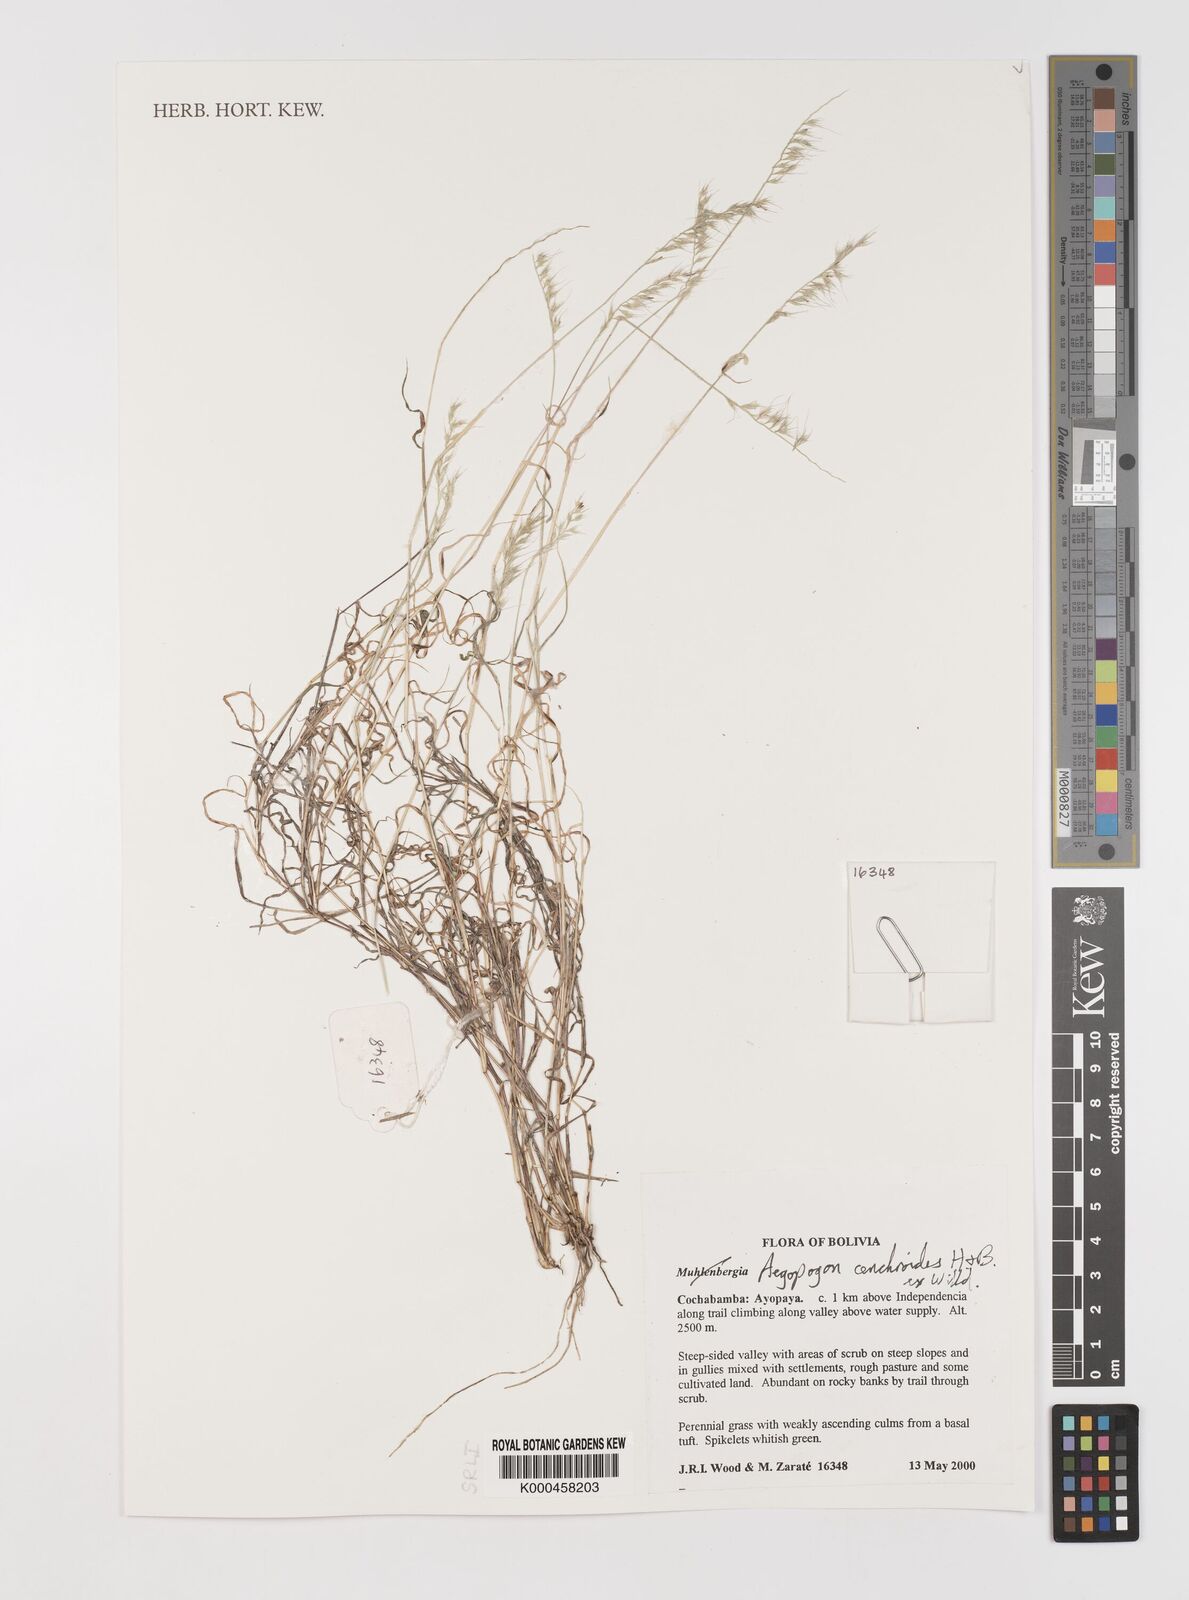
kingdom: Plantae
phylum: Tracheophyta
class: Liliopsida
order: Poales
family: Poaceae
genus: Muhlenbergia
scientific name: Muhlenbergia
